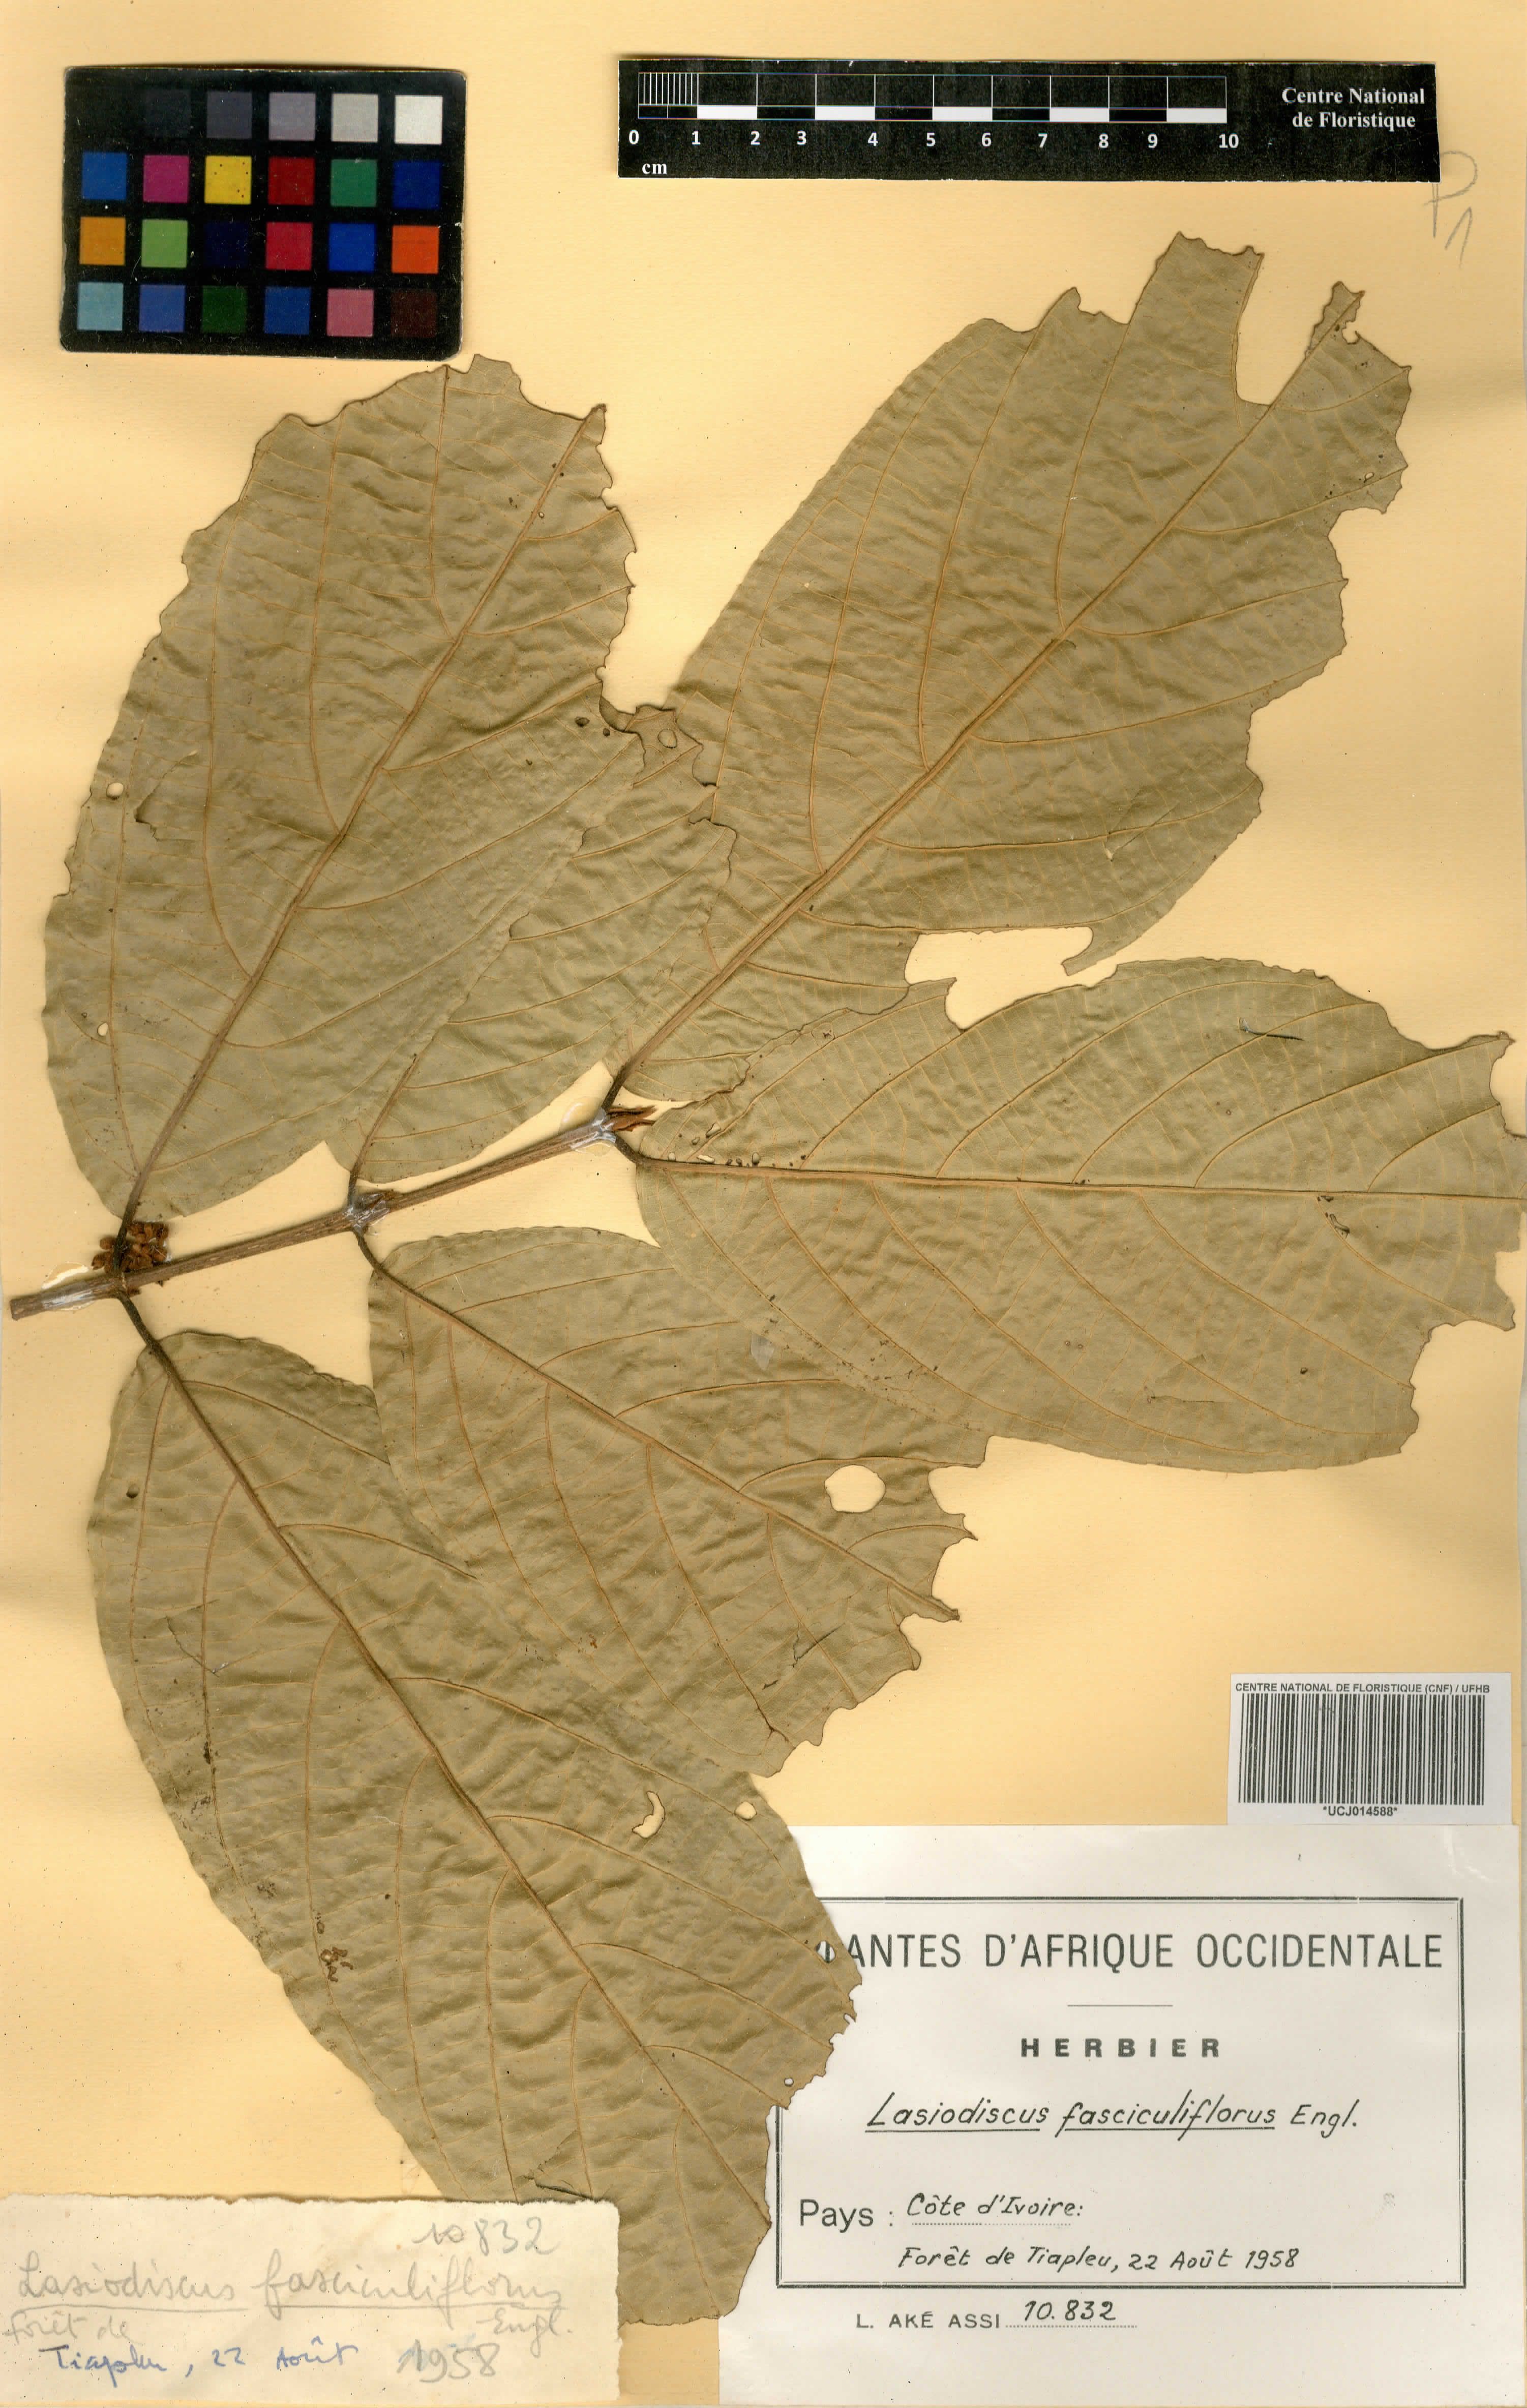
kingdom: Plantae
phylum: Tracheophyta
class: Magnoliopsida
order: Rosales
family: Rhamnaceae
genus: Lasiodiscus
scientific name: Lasiodiscus fasciculiflorus
